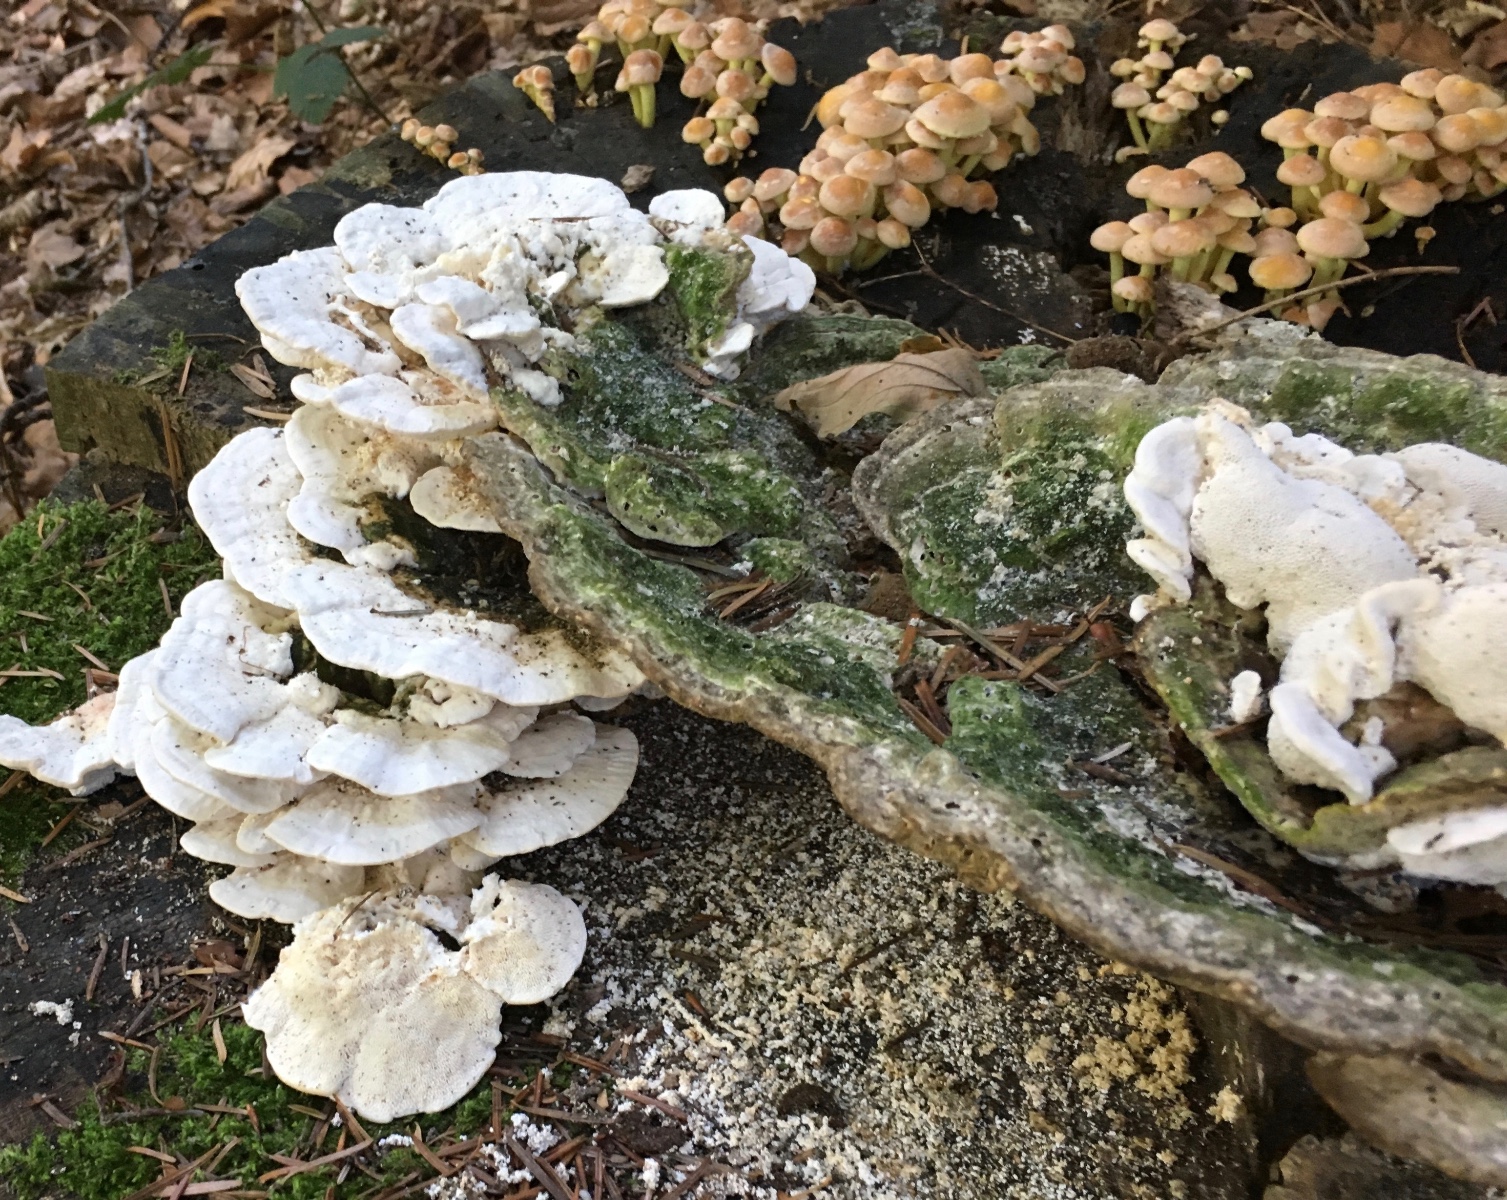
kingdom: Fungi
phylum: Basidiomycota
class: Agaricomycetes
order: Polyporales
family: Polyporaceae
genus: Trametes
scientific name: Trametes gibbosa
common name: puklet læderporesvamp
